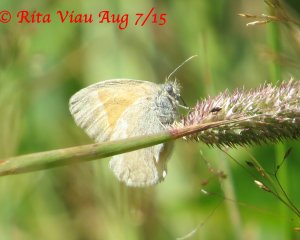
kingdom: Animalia
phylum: Arthropoda
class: Insecta
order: Lepidoptera
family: Nymphalidae
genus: Coenonympha
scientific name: Coenonympha tullia
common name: Large Heath
